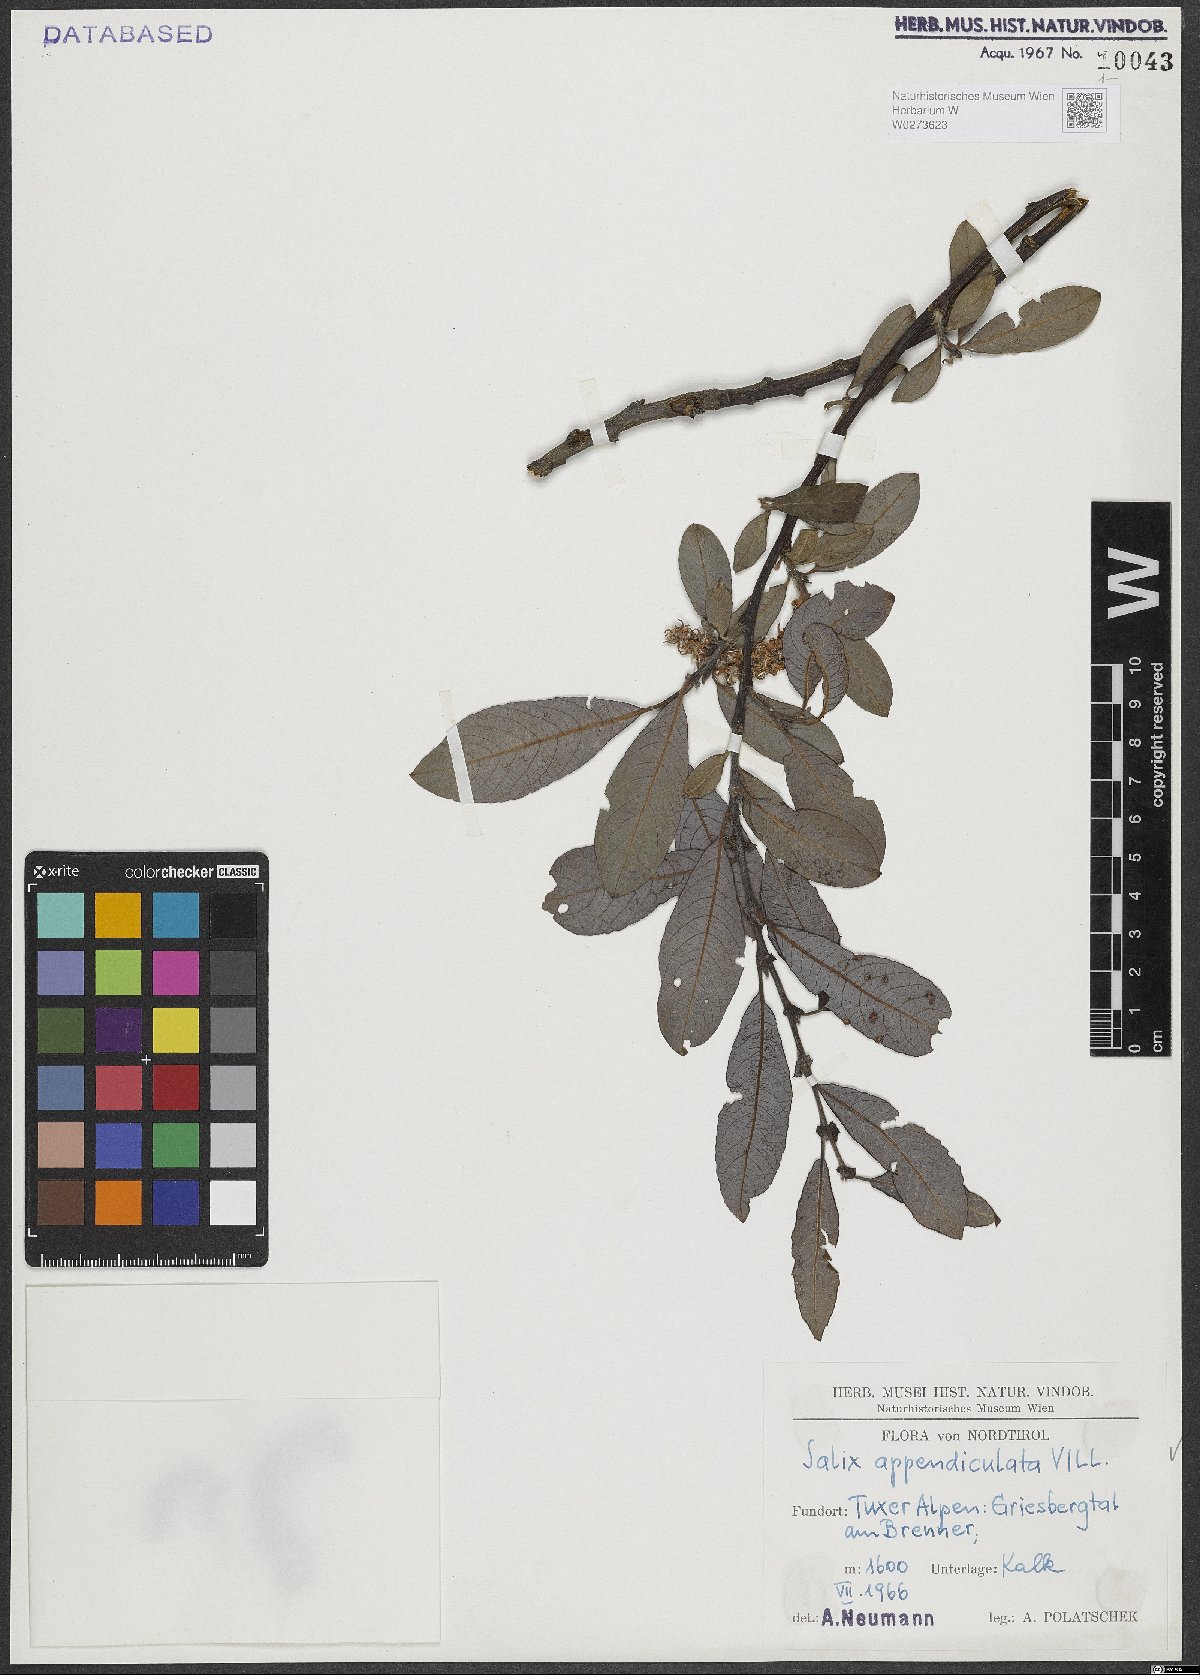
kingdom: Plantae
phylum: Tracheophyta
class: Magnoliopsida
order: Malpighiales
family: Salicaceae
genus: Salix
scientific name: Salix appendiculata
